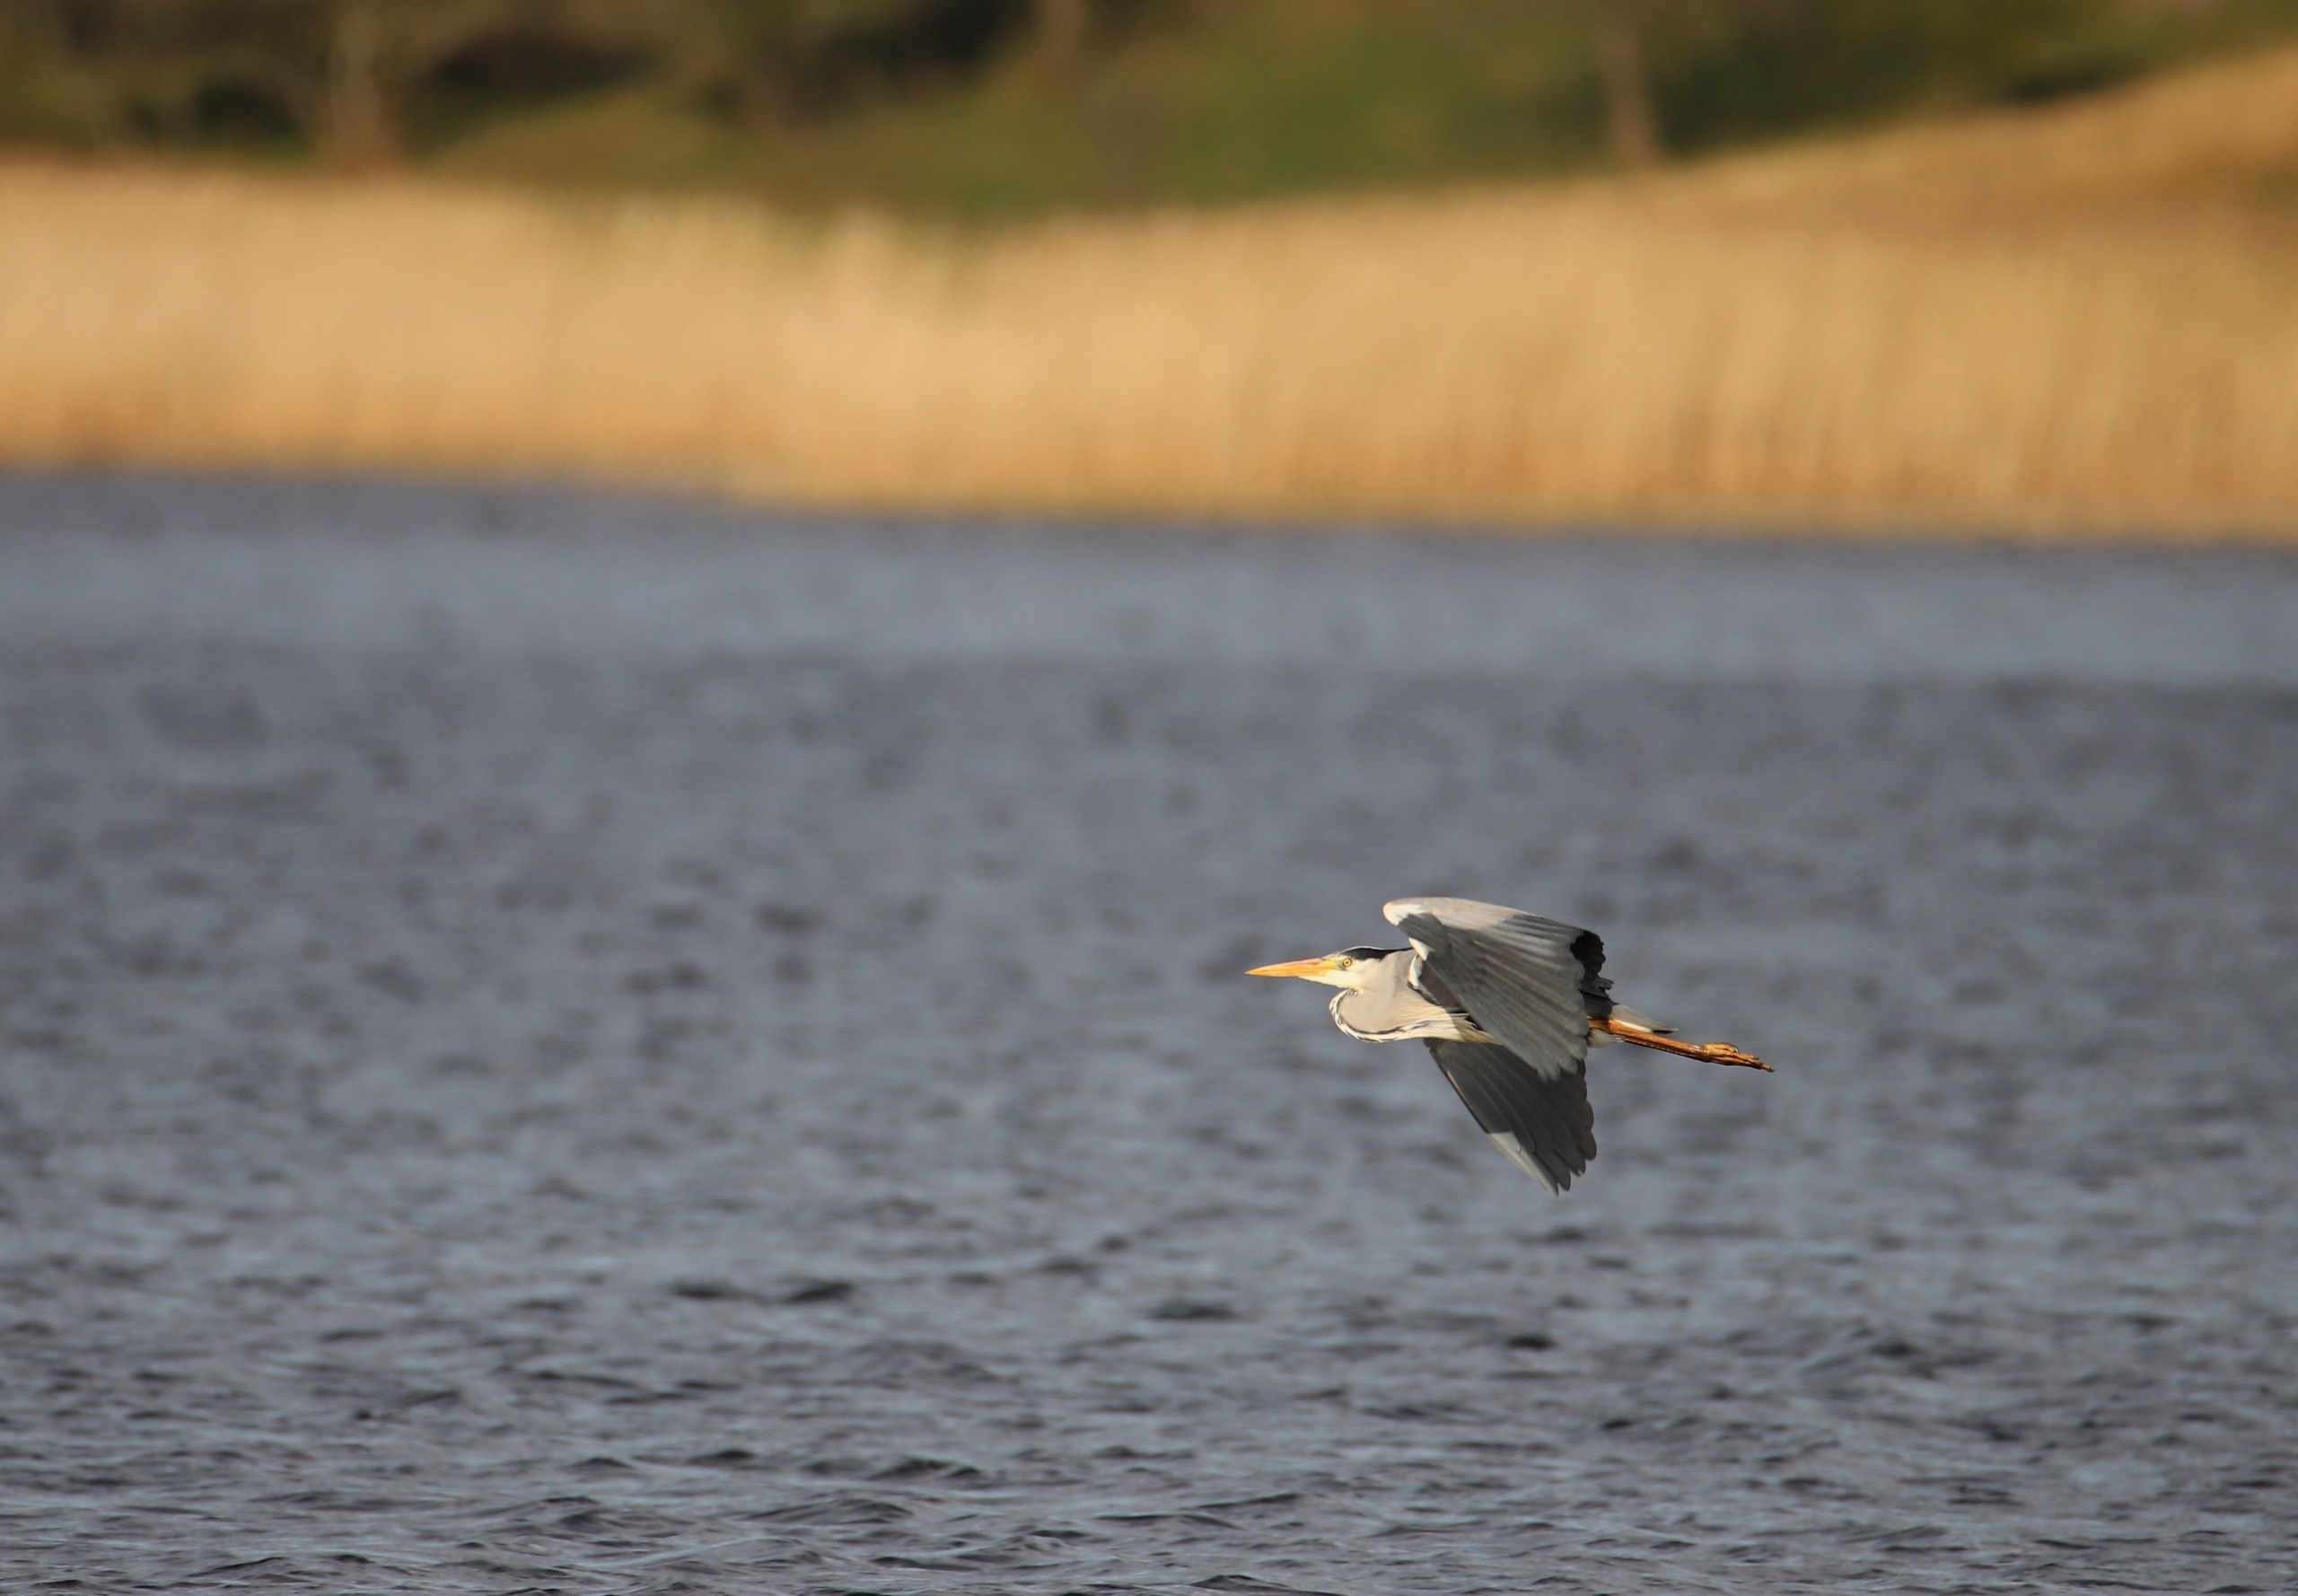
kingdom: Animalia
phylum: Chordata
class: Aves
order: Pelecaniformes
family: Ardeidae
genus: Ardea
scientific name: Ardea cinerea
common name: Fiskehejre
